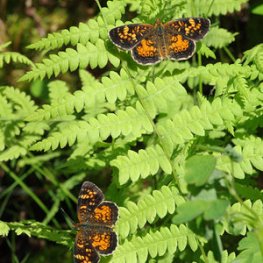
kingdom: Animalia
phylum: Arthropoda
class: Insecta
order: Lepidoptera
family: Nymphalidae
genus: Phyciodes
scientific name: Phyciodes batesii
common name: Tawny Crescent
